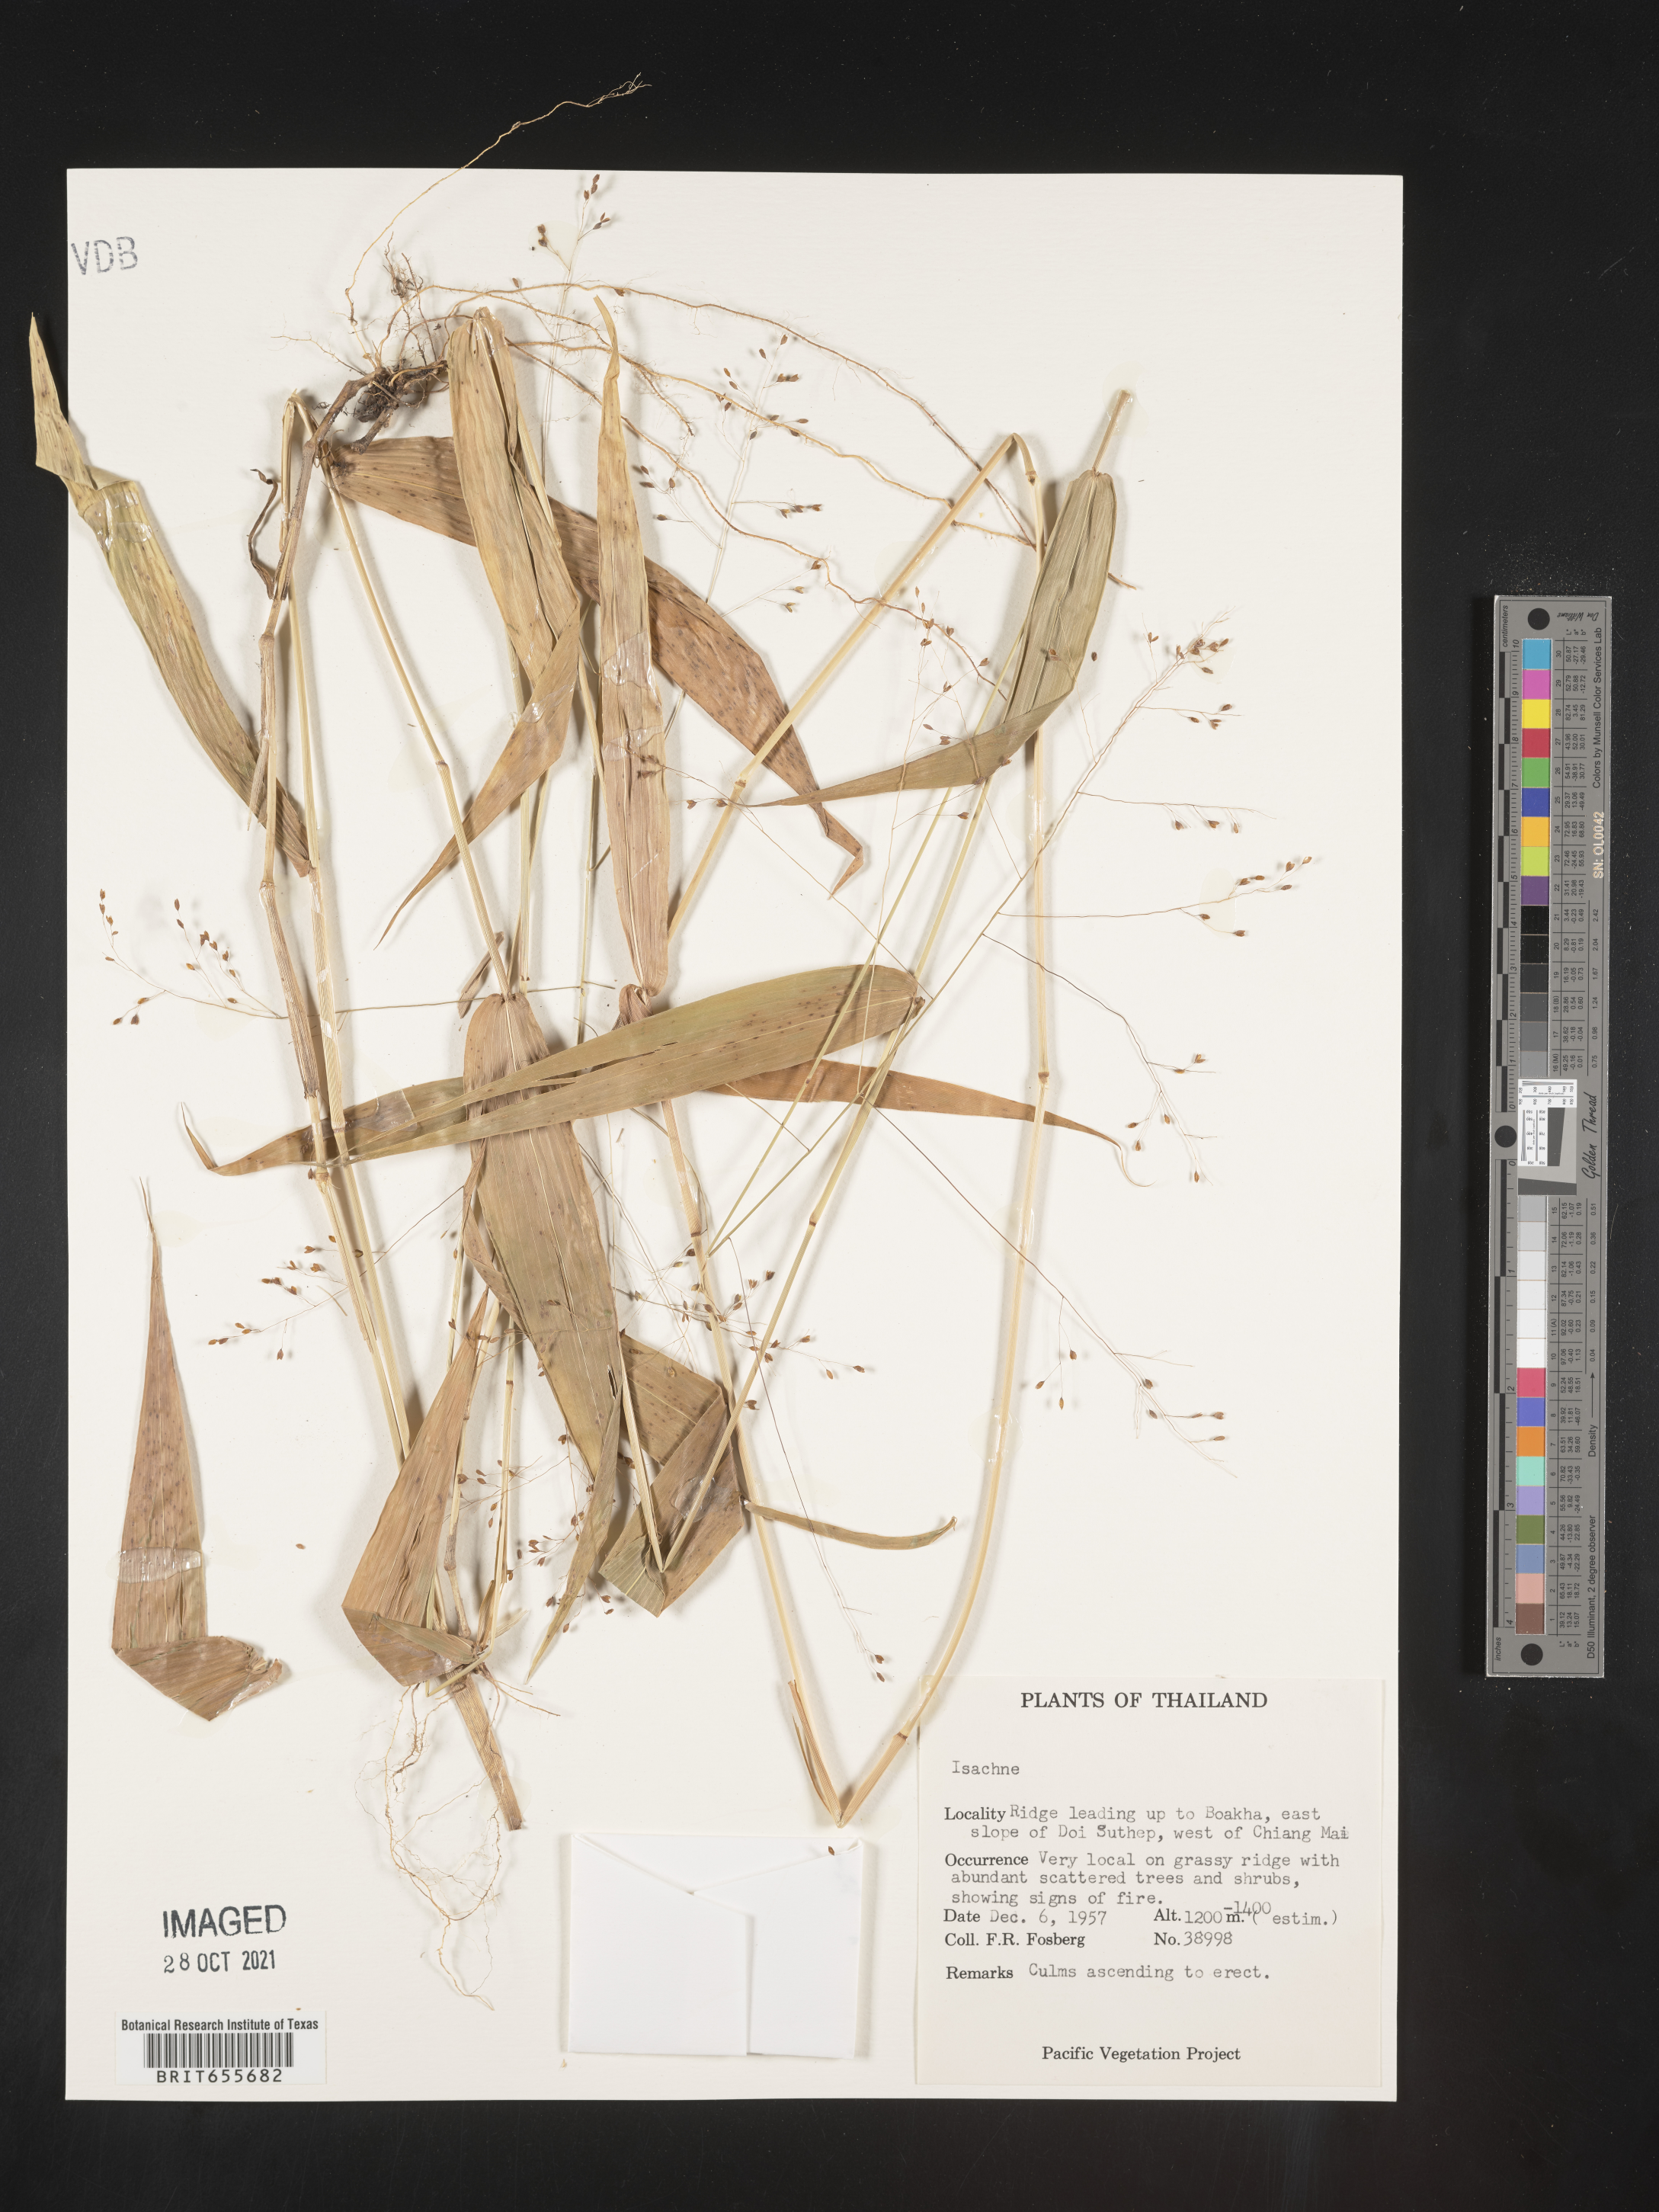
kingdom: Plantae
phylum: Tracheophyta
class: Liliopsida
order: Poales
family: Poaceae
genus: Isachne
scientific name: Isachne
